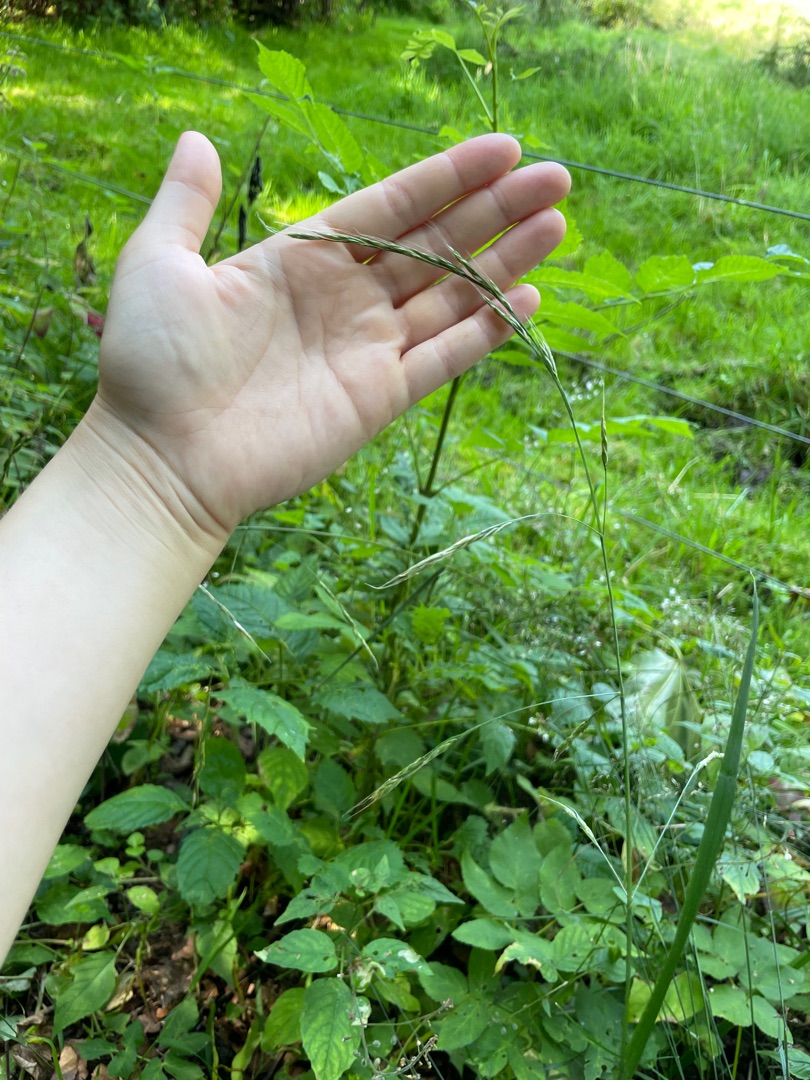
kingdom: Plantae
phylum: Tracheophyta
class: Liliopsida
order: Poales
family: Poaceae
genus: Lolium
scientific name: Lolium giganteum
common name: Kæmpe-svingel
